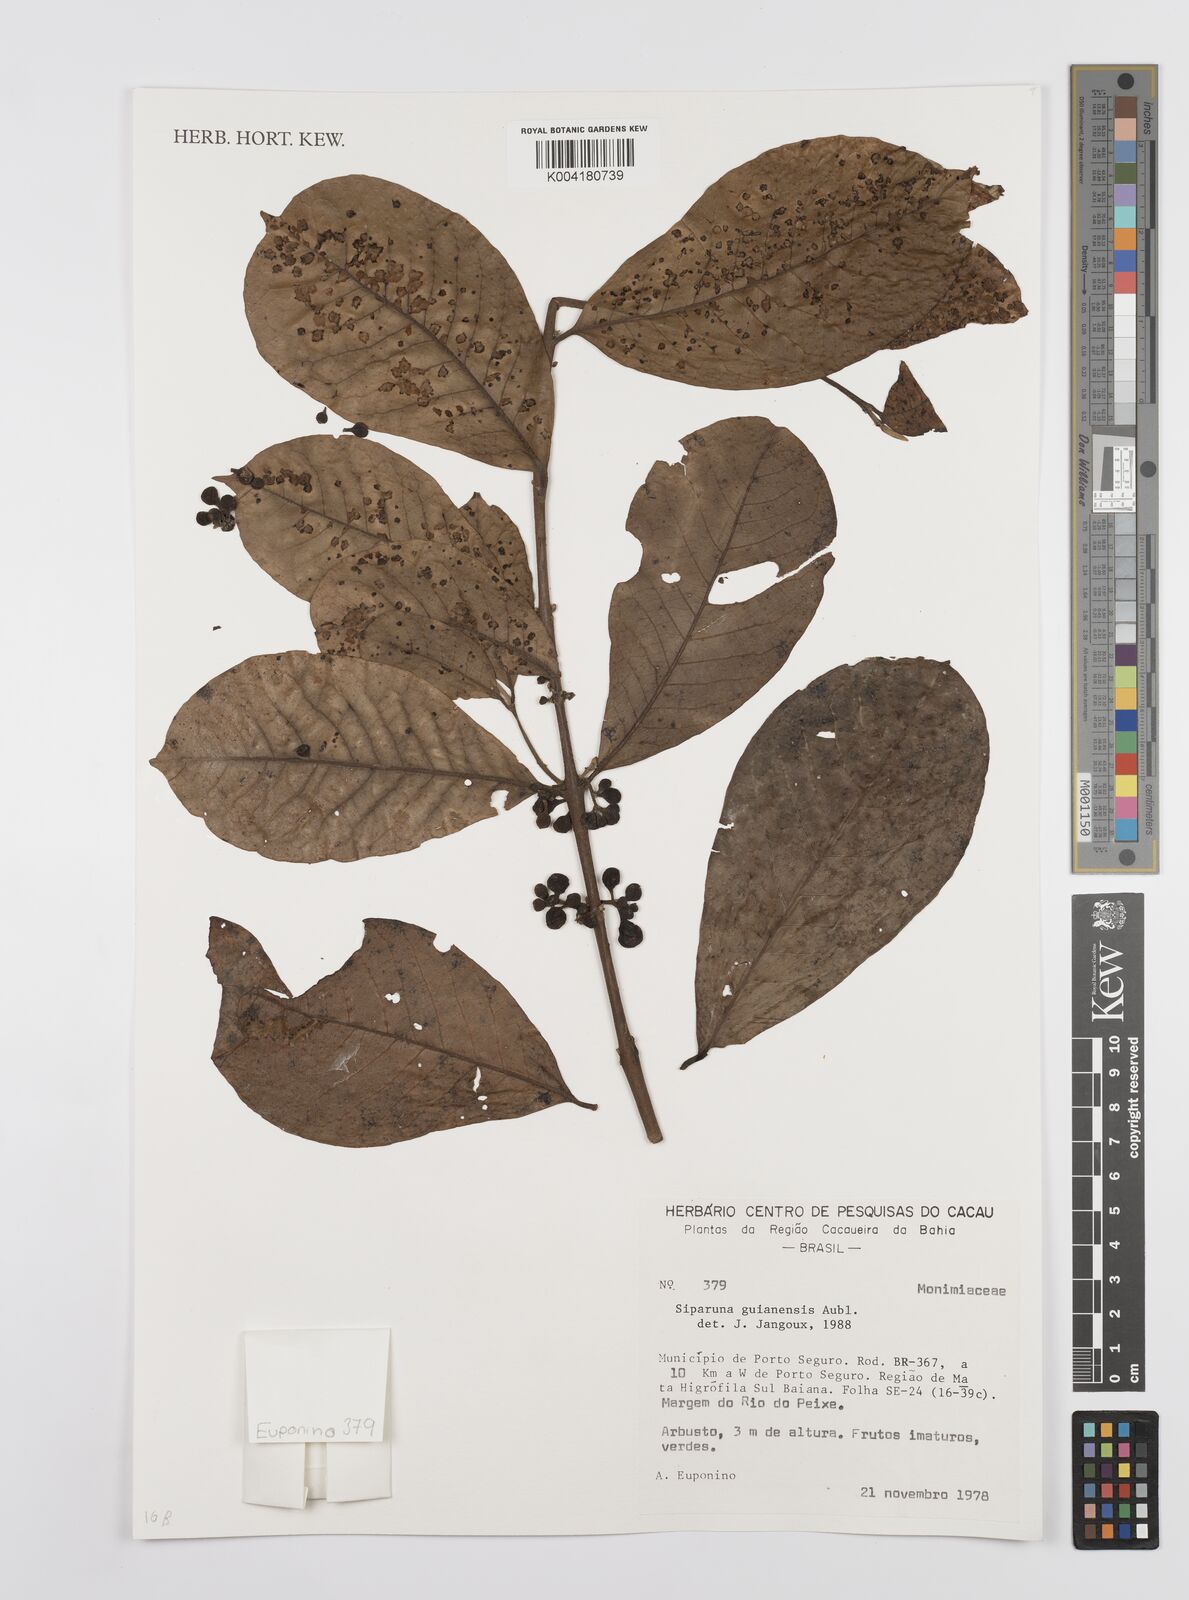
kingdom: Plantae
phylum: Tracheophyta
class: Magnoliopsida
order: Laurales
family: Siparunaceae
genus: Siparuna
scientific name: Siparuna guianensis
